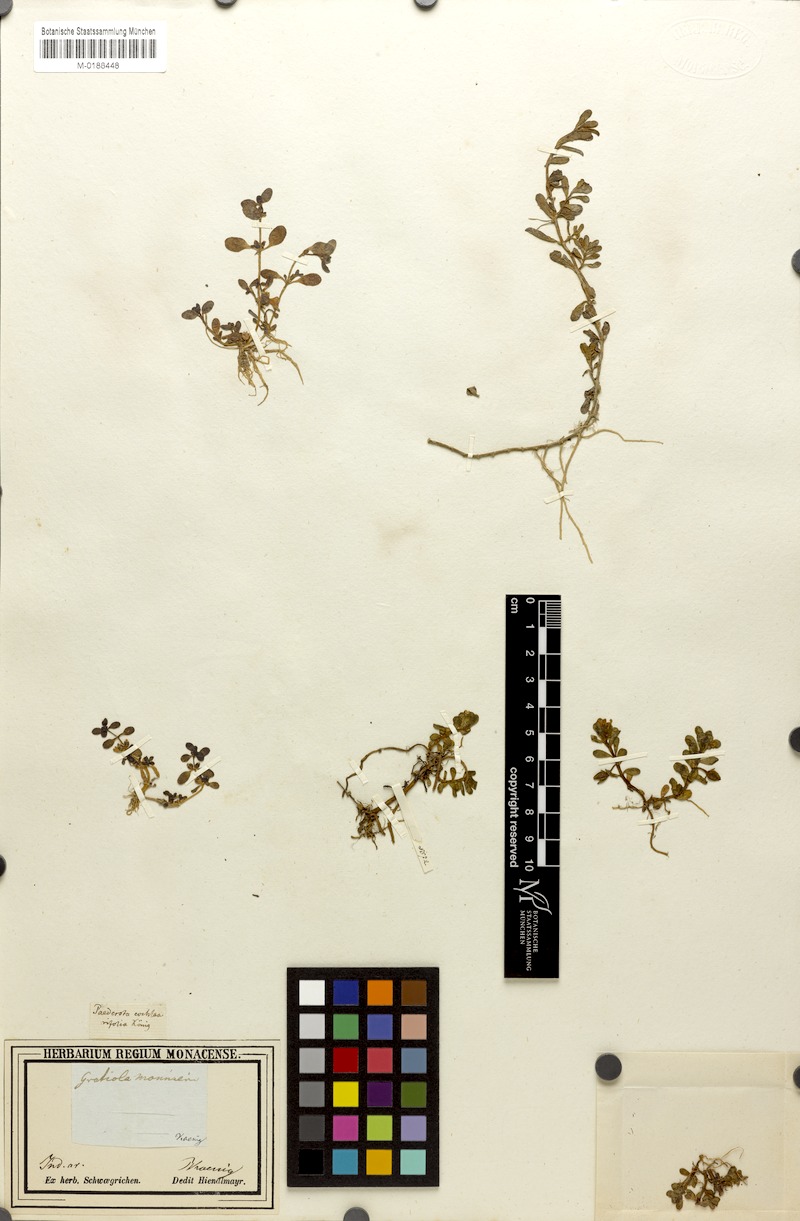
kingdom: Plantae
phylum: Tracheophyta
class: Magnoliopsida
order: Lamiales
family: Plantaginaceae
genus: Bacopa
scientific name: Bacopa monnieri
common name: Indian-pennywort
